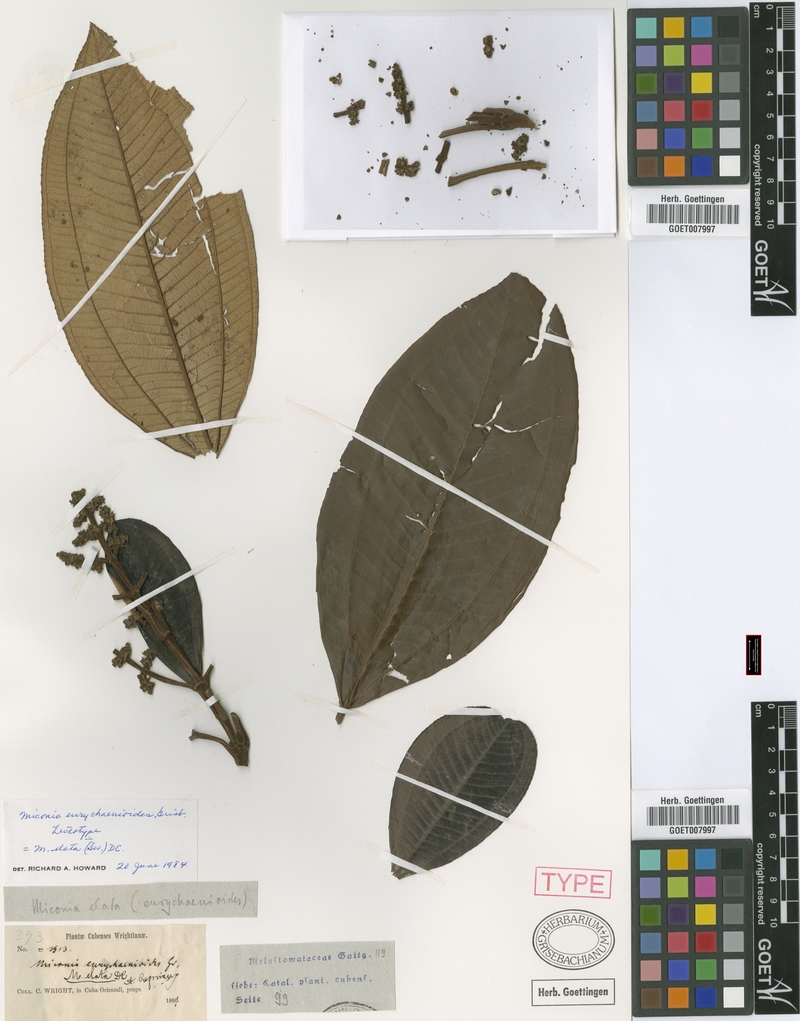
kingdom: Plantae
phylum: Tracheophyta
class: Magnoliopsida
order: Myrtales
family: Melastomataceae
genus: Miconia
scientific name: Miconia elata
